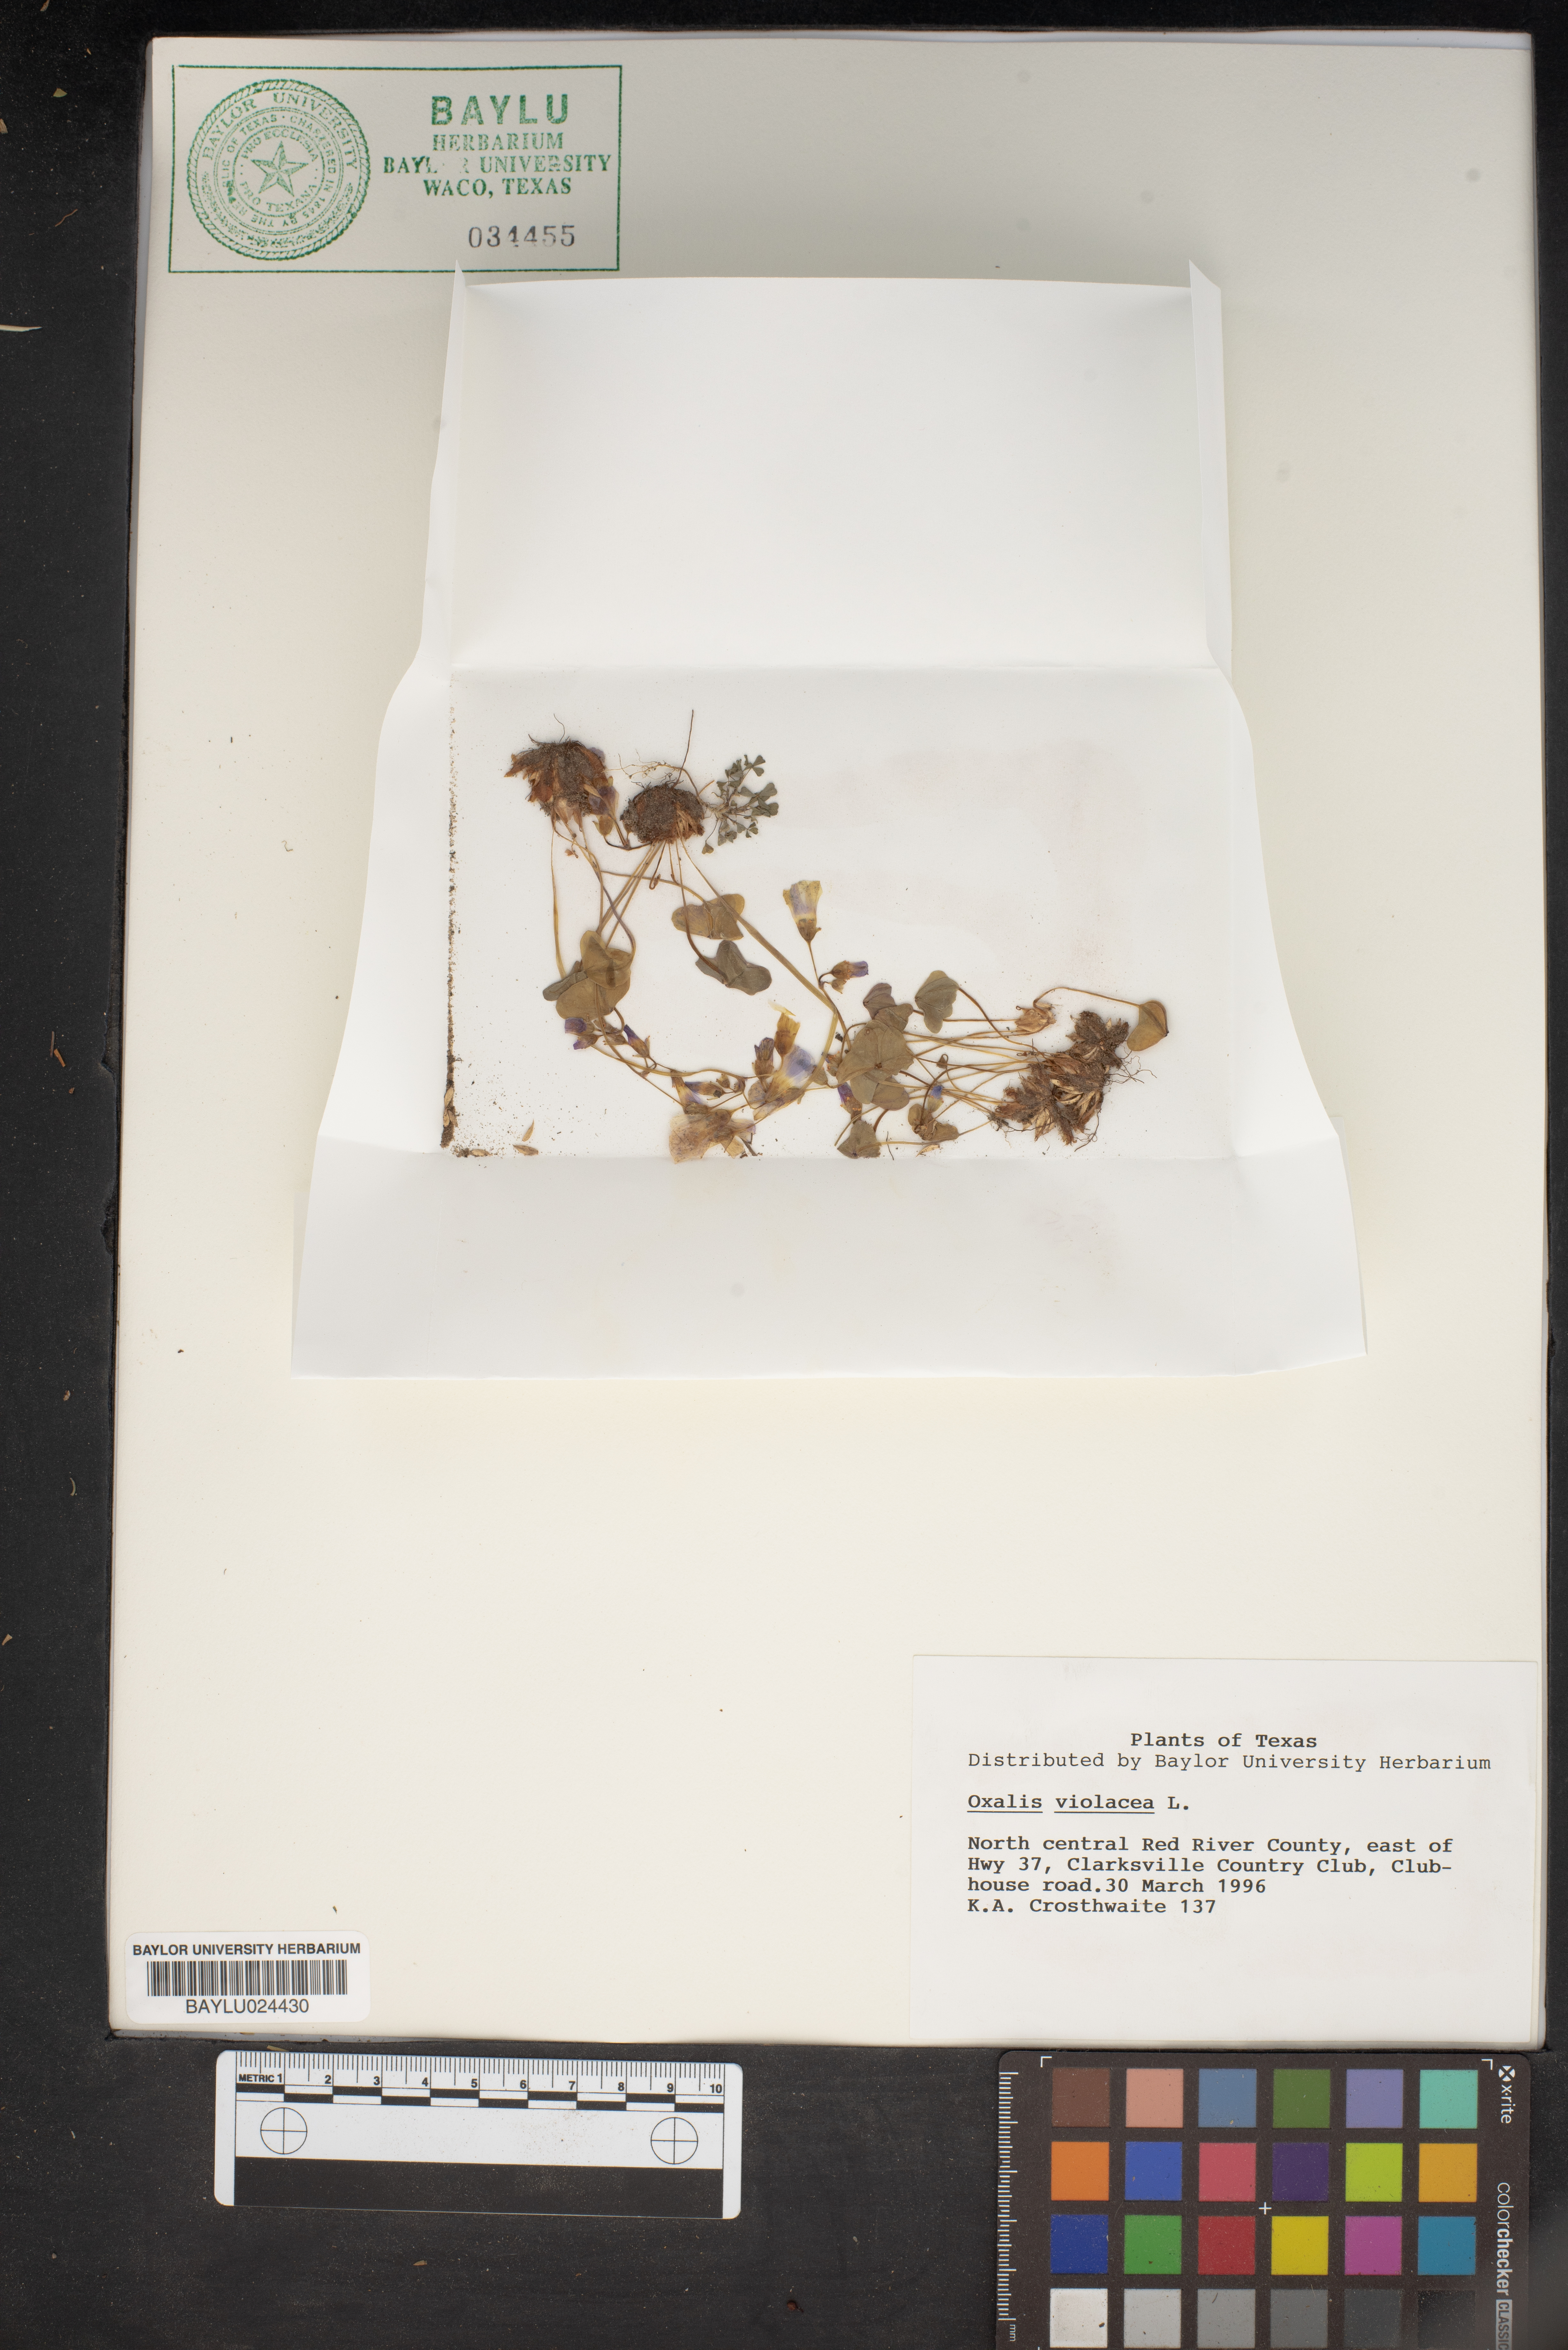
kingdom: Plantae
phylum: Tracheophyta
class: Magnoliopsida
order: Oxalidales
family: Oxalidaceae
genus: Oxalis
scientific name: Oxalis violacea
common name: Violet wood-sorrel
